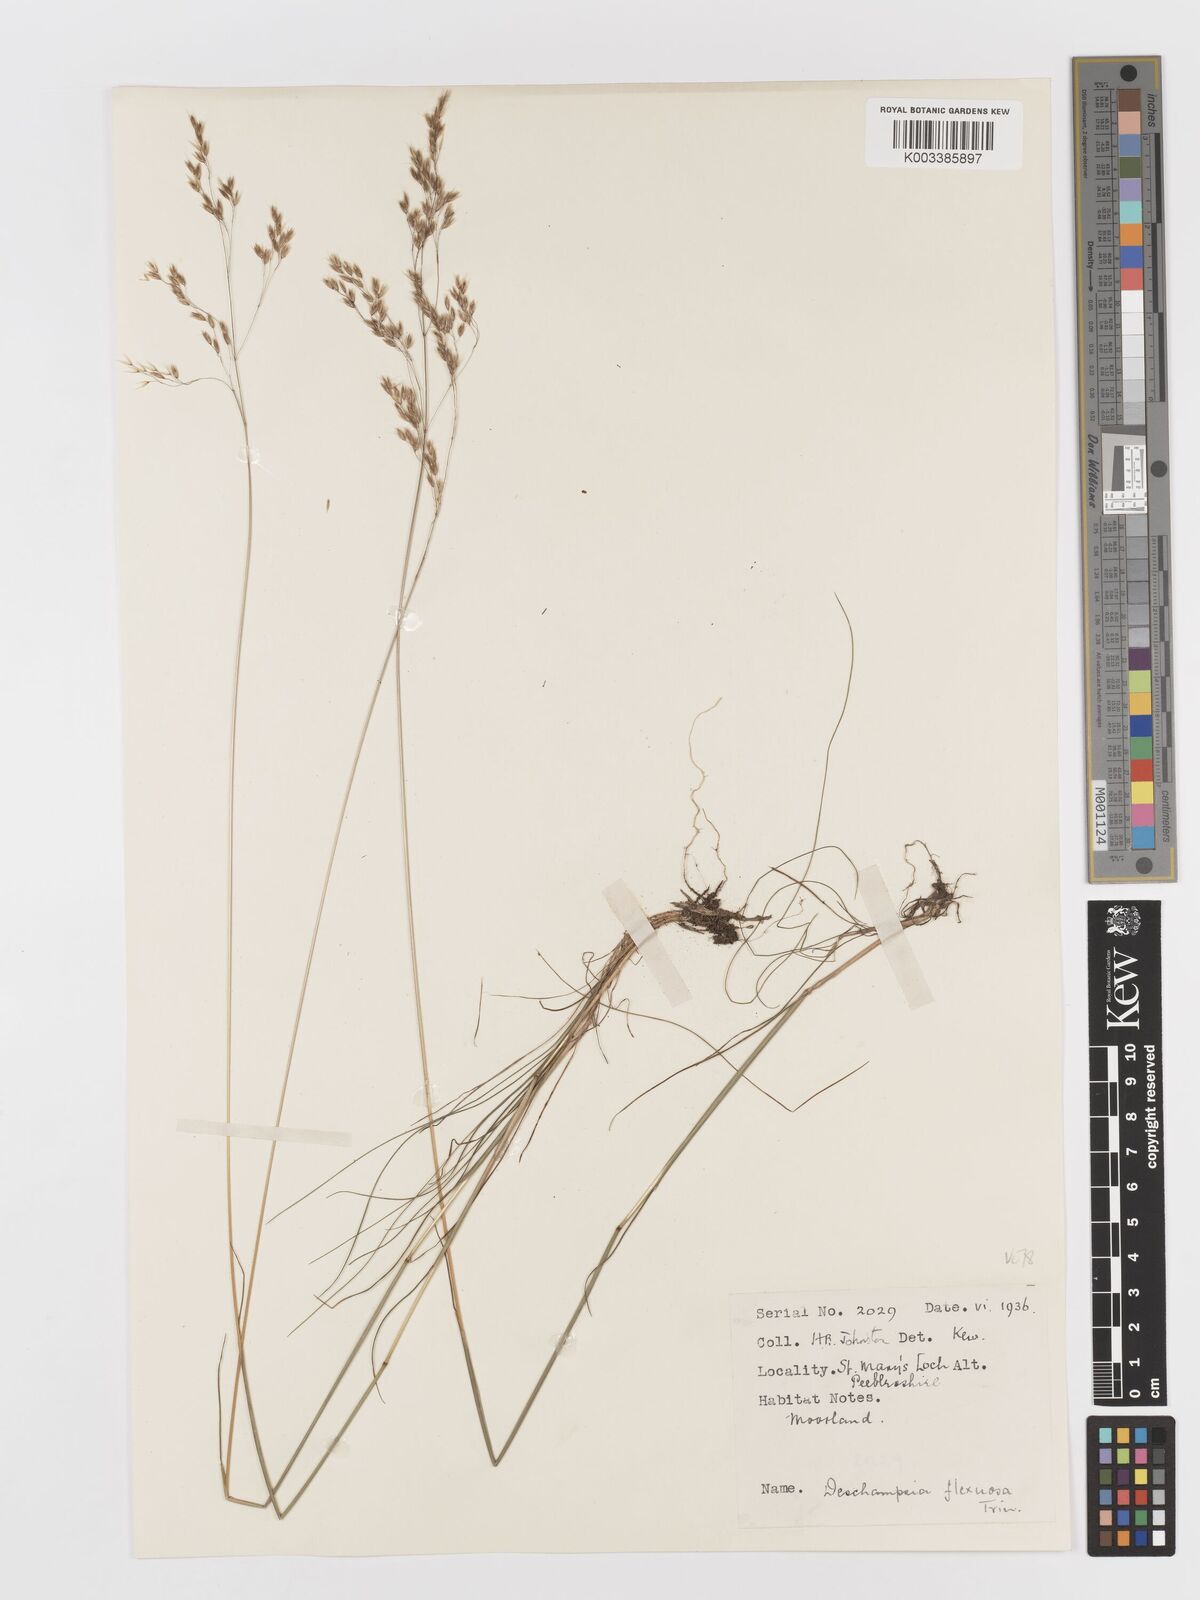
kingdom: Plantae
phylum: Tracheophyta
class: Liliopsida
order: Poales
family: Poaceae
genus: Avenella
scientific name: Avenella flexuosa
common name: Wavy hairgrass
